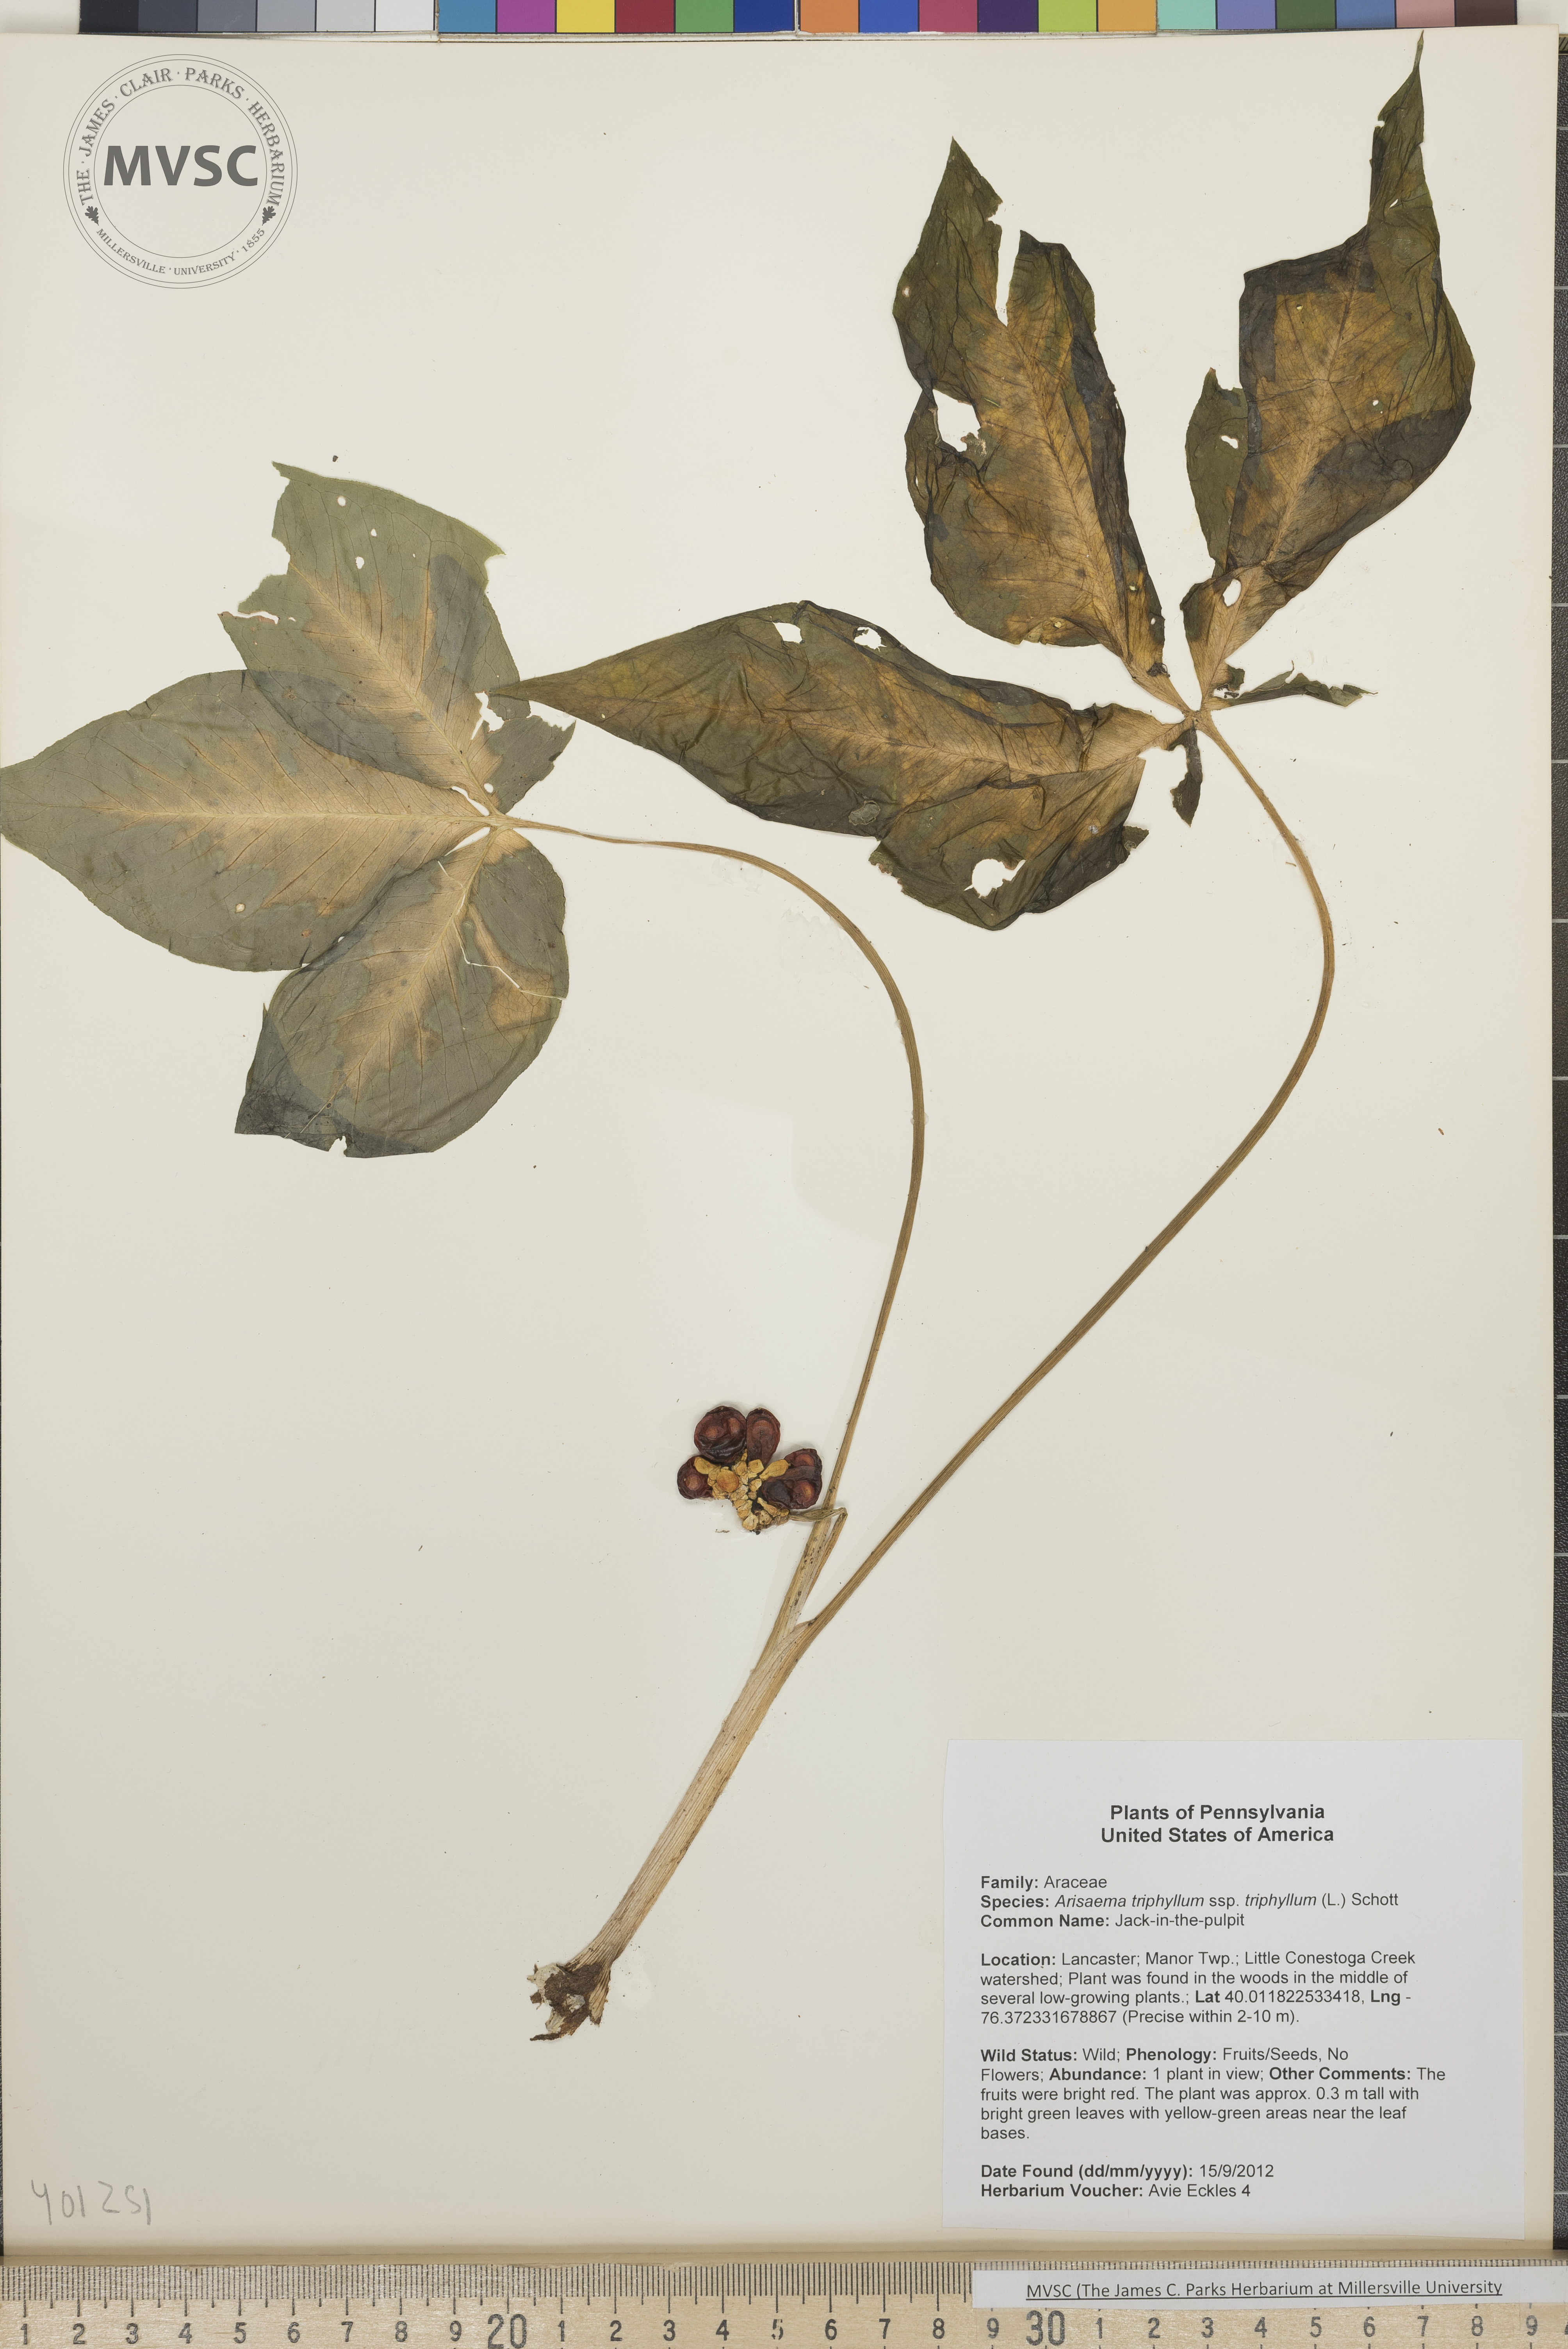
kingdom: Plantae
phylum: Tracheophyta
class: Liliopsida
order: Alismatales
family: Araceae
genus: Arisaema
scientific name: Arisaema triphyllum
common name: Jack-in-the-pulpit
